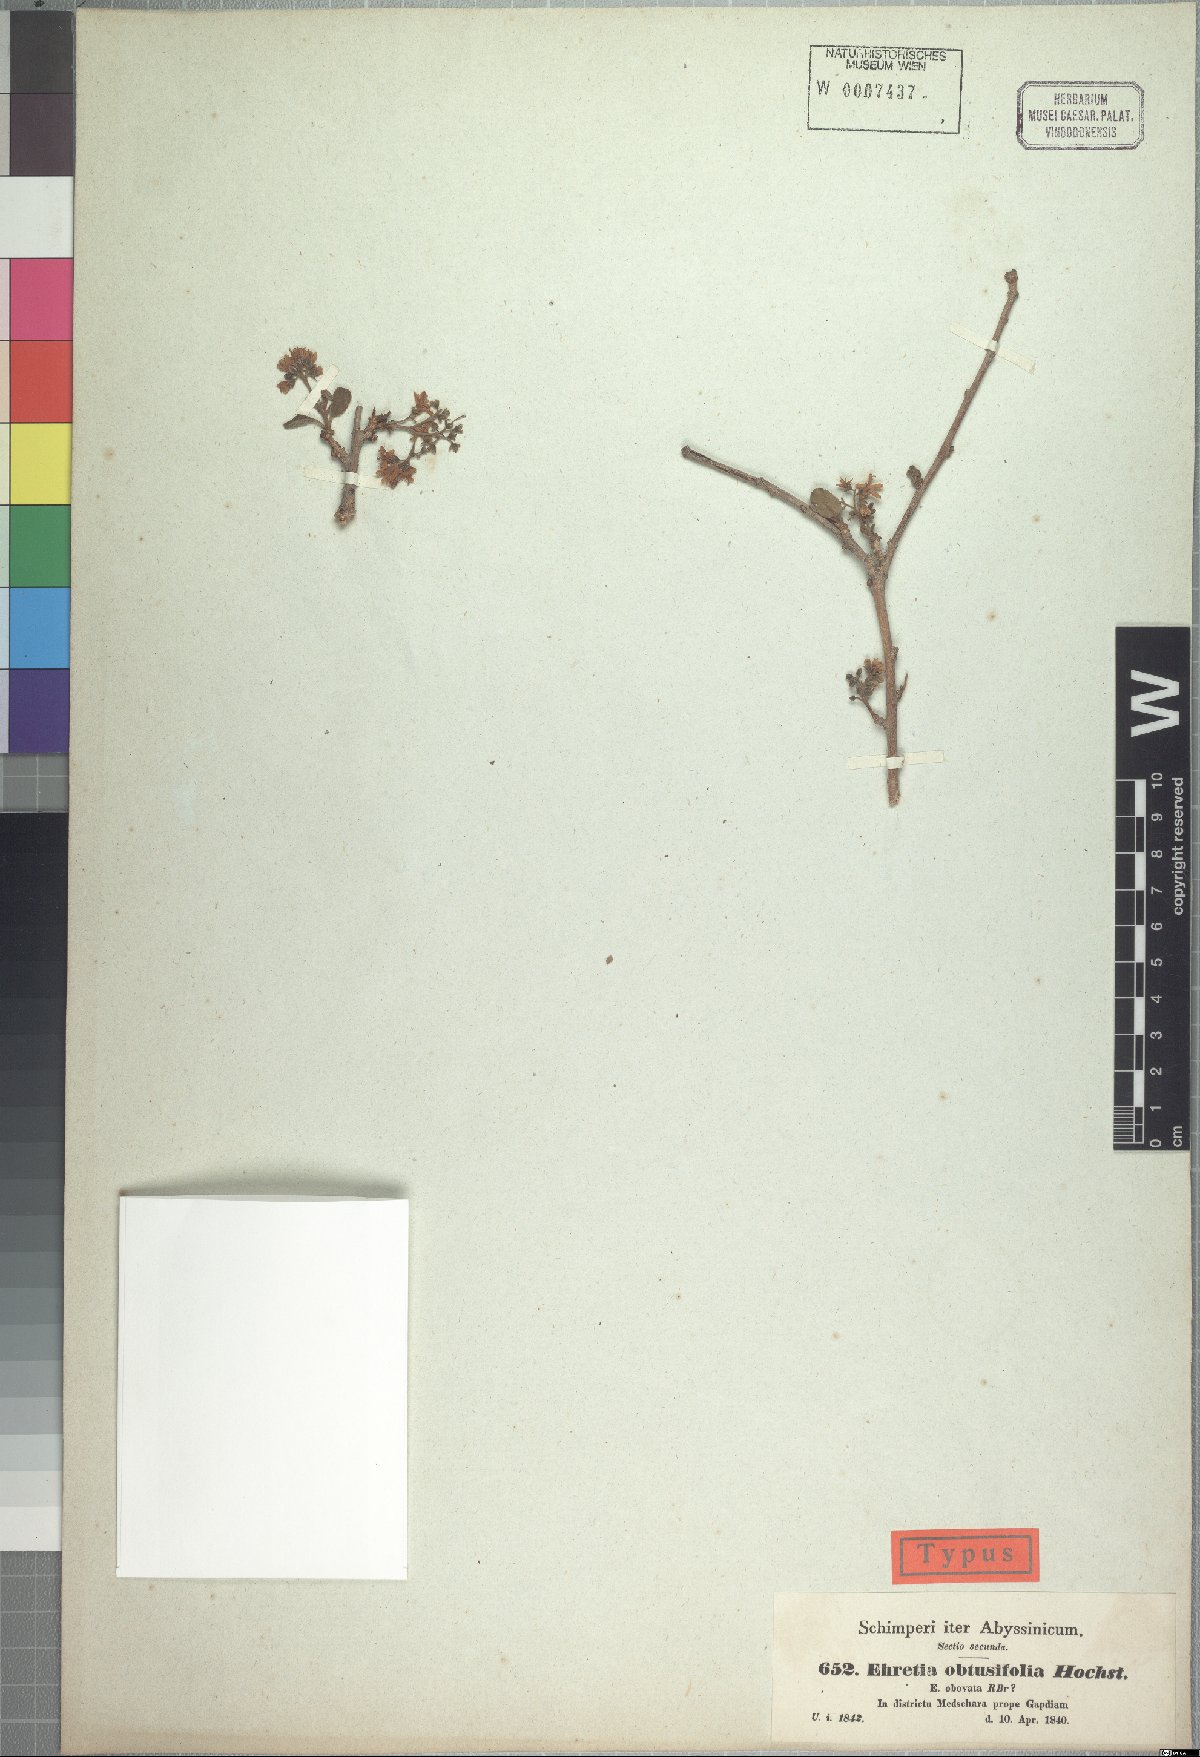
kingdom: Plantae
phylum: Tracheophyta
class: Magnoliopsida
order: Boraginales
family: Ehretiaceae
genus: Ehretia
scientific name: Ehretia obtusifolia
